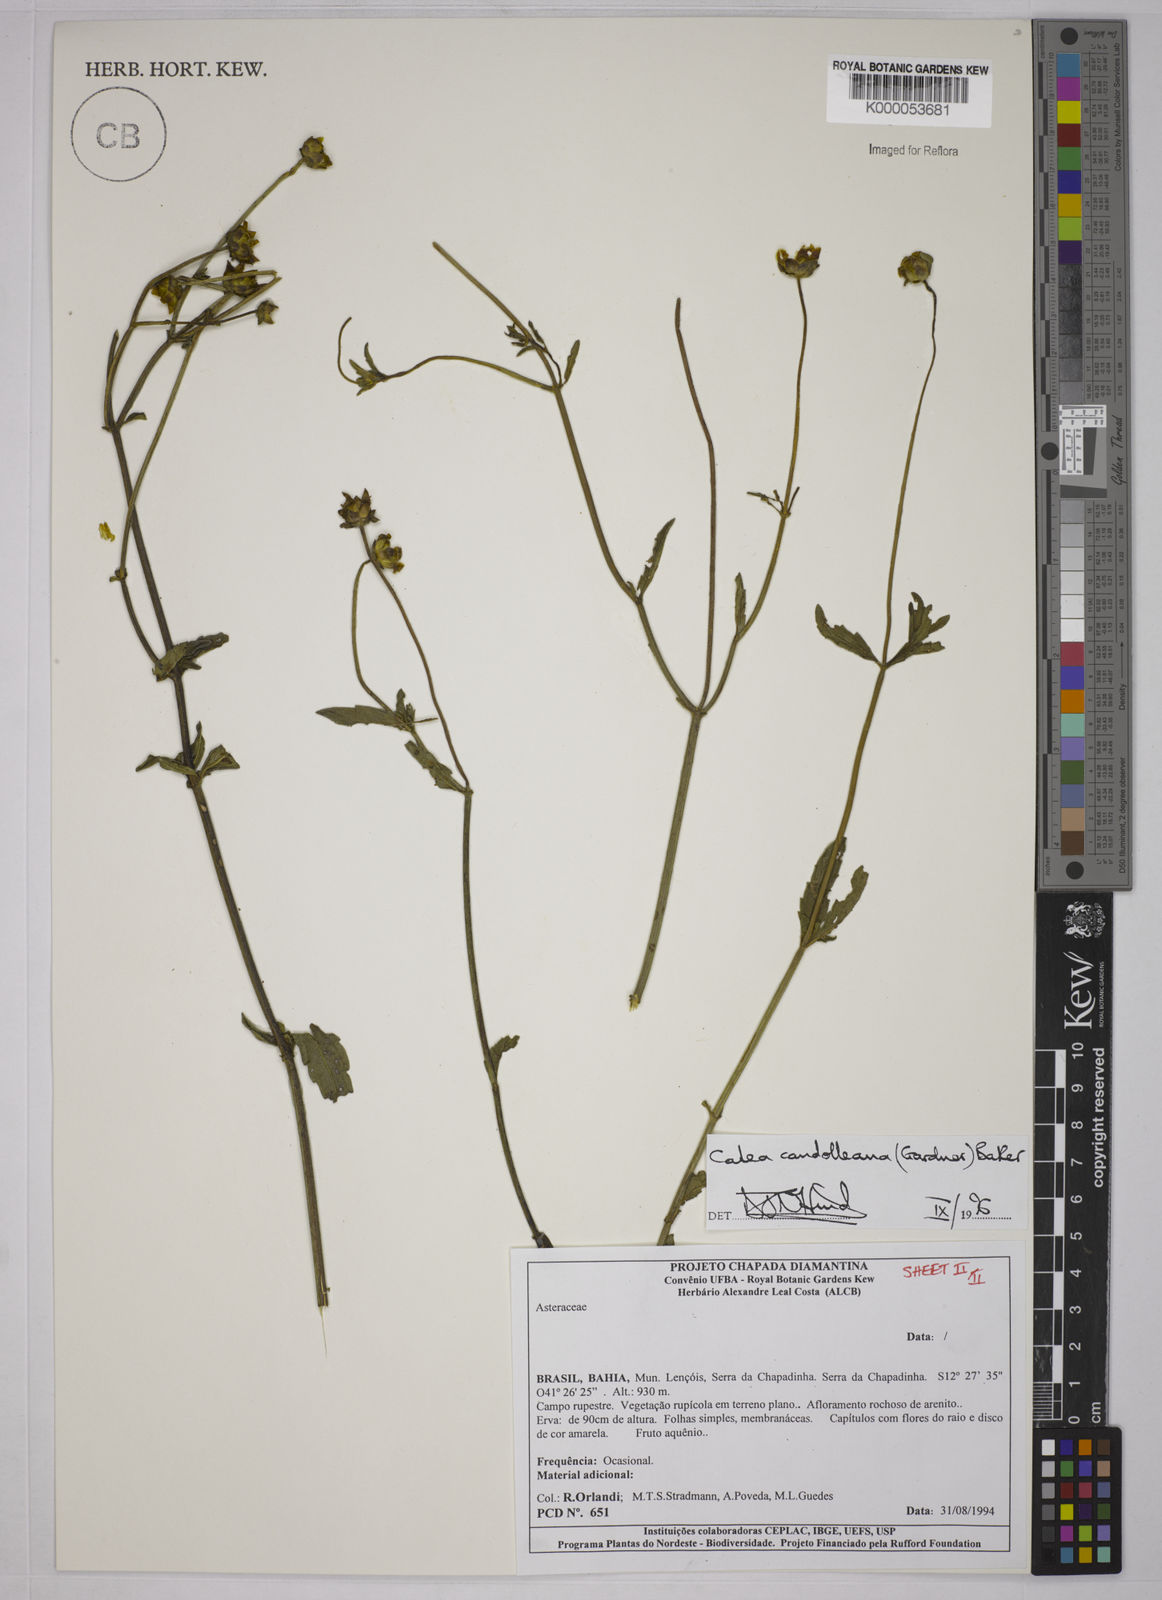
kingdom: Plantae
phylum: Tracheophyta
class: Magnoliopsida
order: Asterales
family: Asteraceae
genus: Calea
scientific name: Calea candolleana
